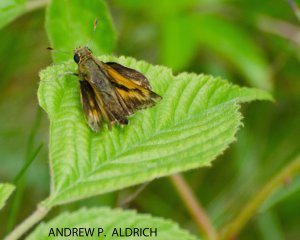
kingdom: Animalia
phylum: Arthropoda
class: Insecta
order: Lepidoptera
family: Hesperiidae
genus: Polites
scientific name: Polites
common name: Long Dash Skipper
